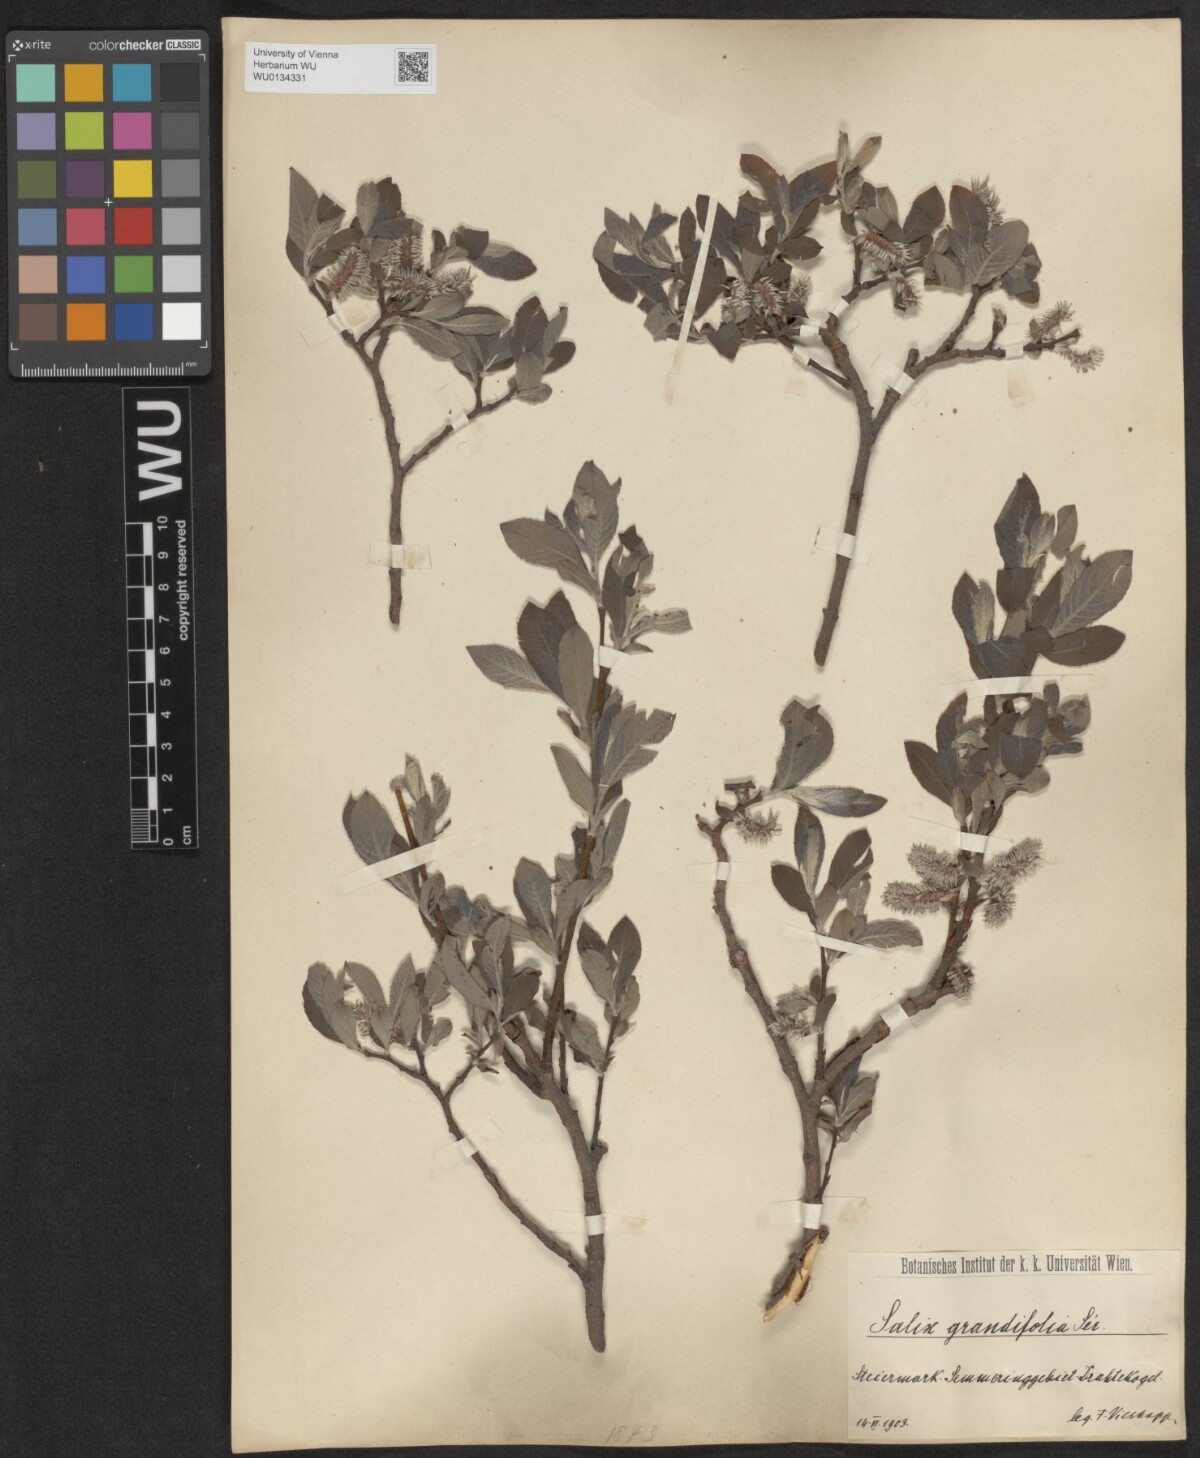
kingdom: Plantae
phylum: Tracheophyta
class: Magnoliopsida
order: Malpighiales
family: Salicaceae
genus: Salix
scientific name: Salix appendiculata
